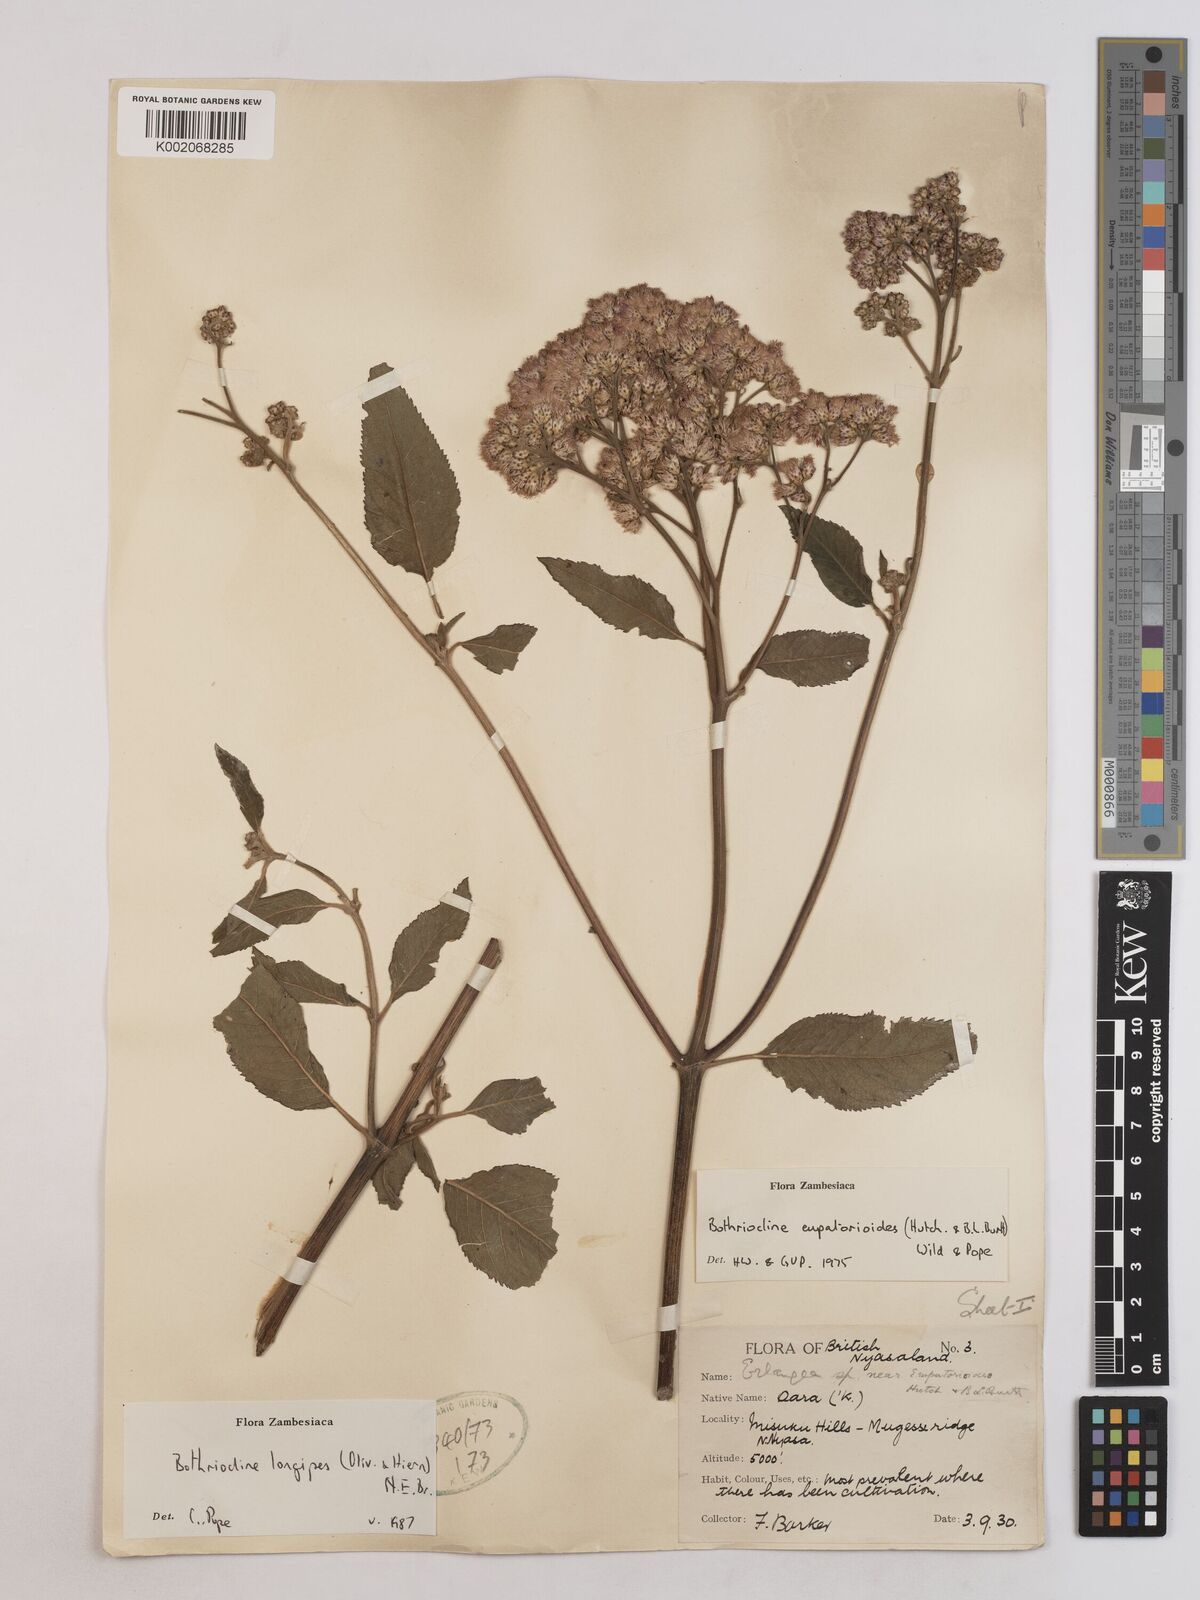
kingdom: Plantae
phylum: Tracheophyta
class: Magnoliopsida
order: Asterales
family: Asteraceae
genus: Bothriocline
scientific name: Bothriocline longipes
